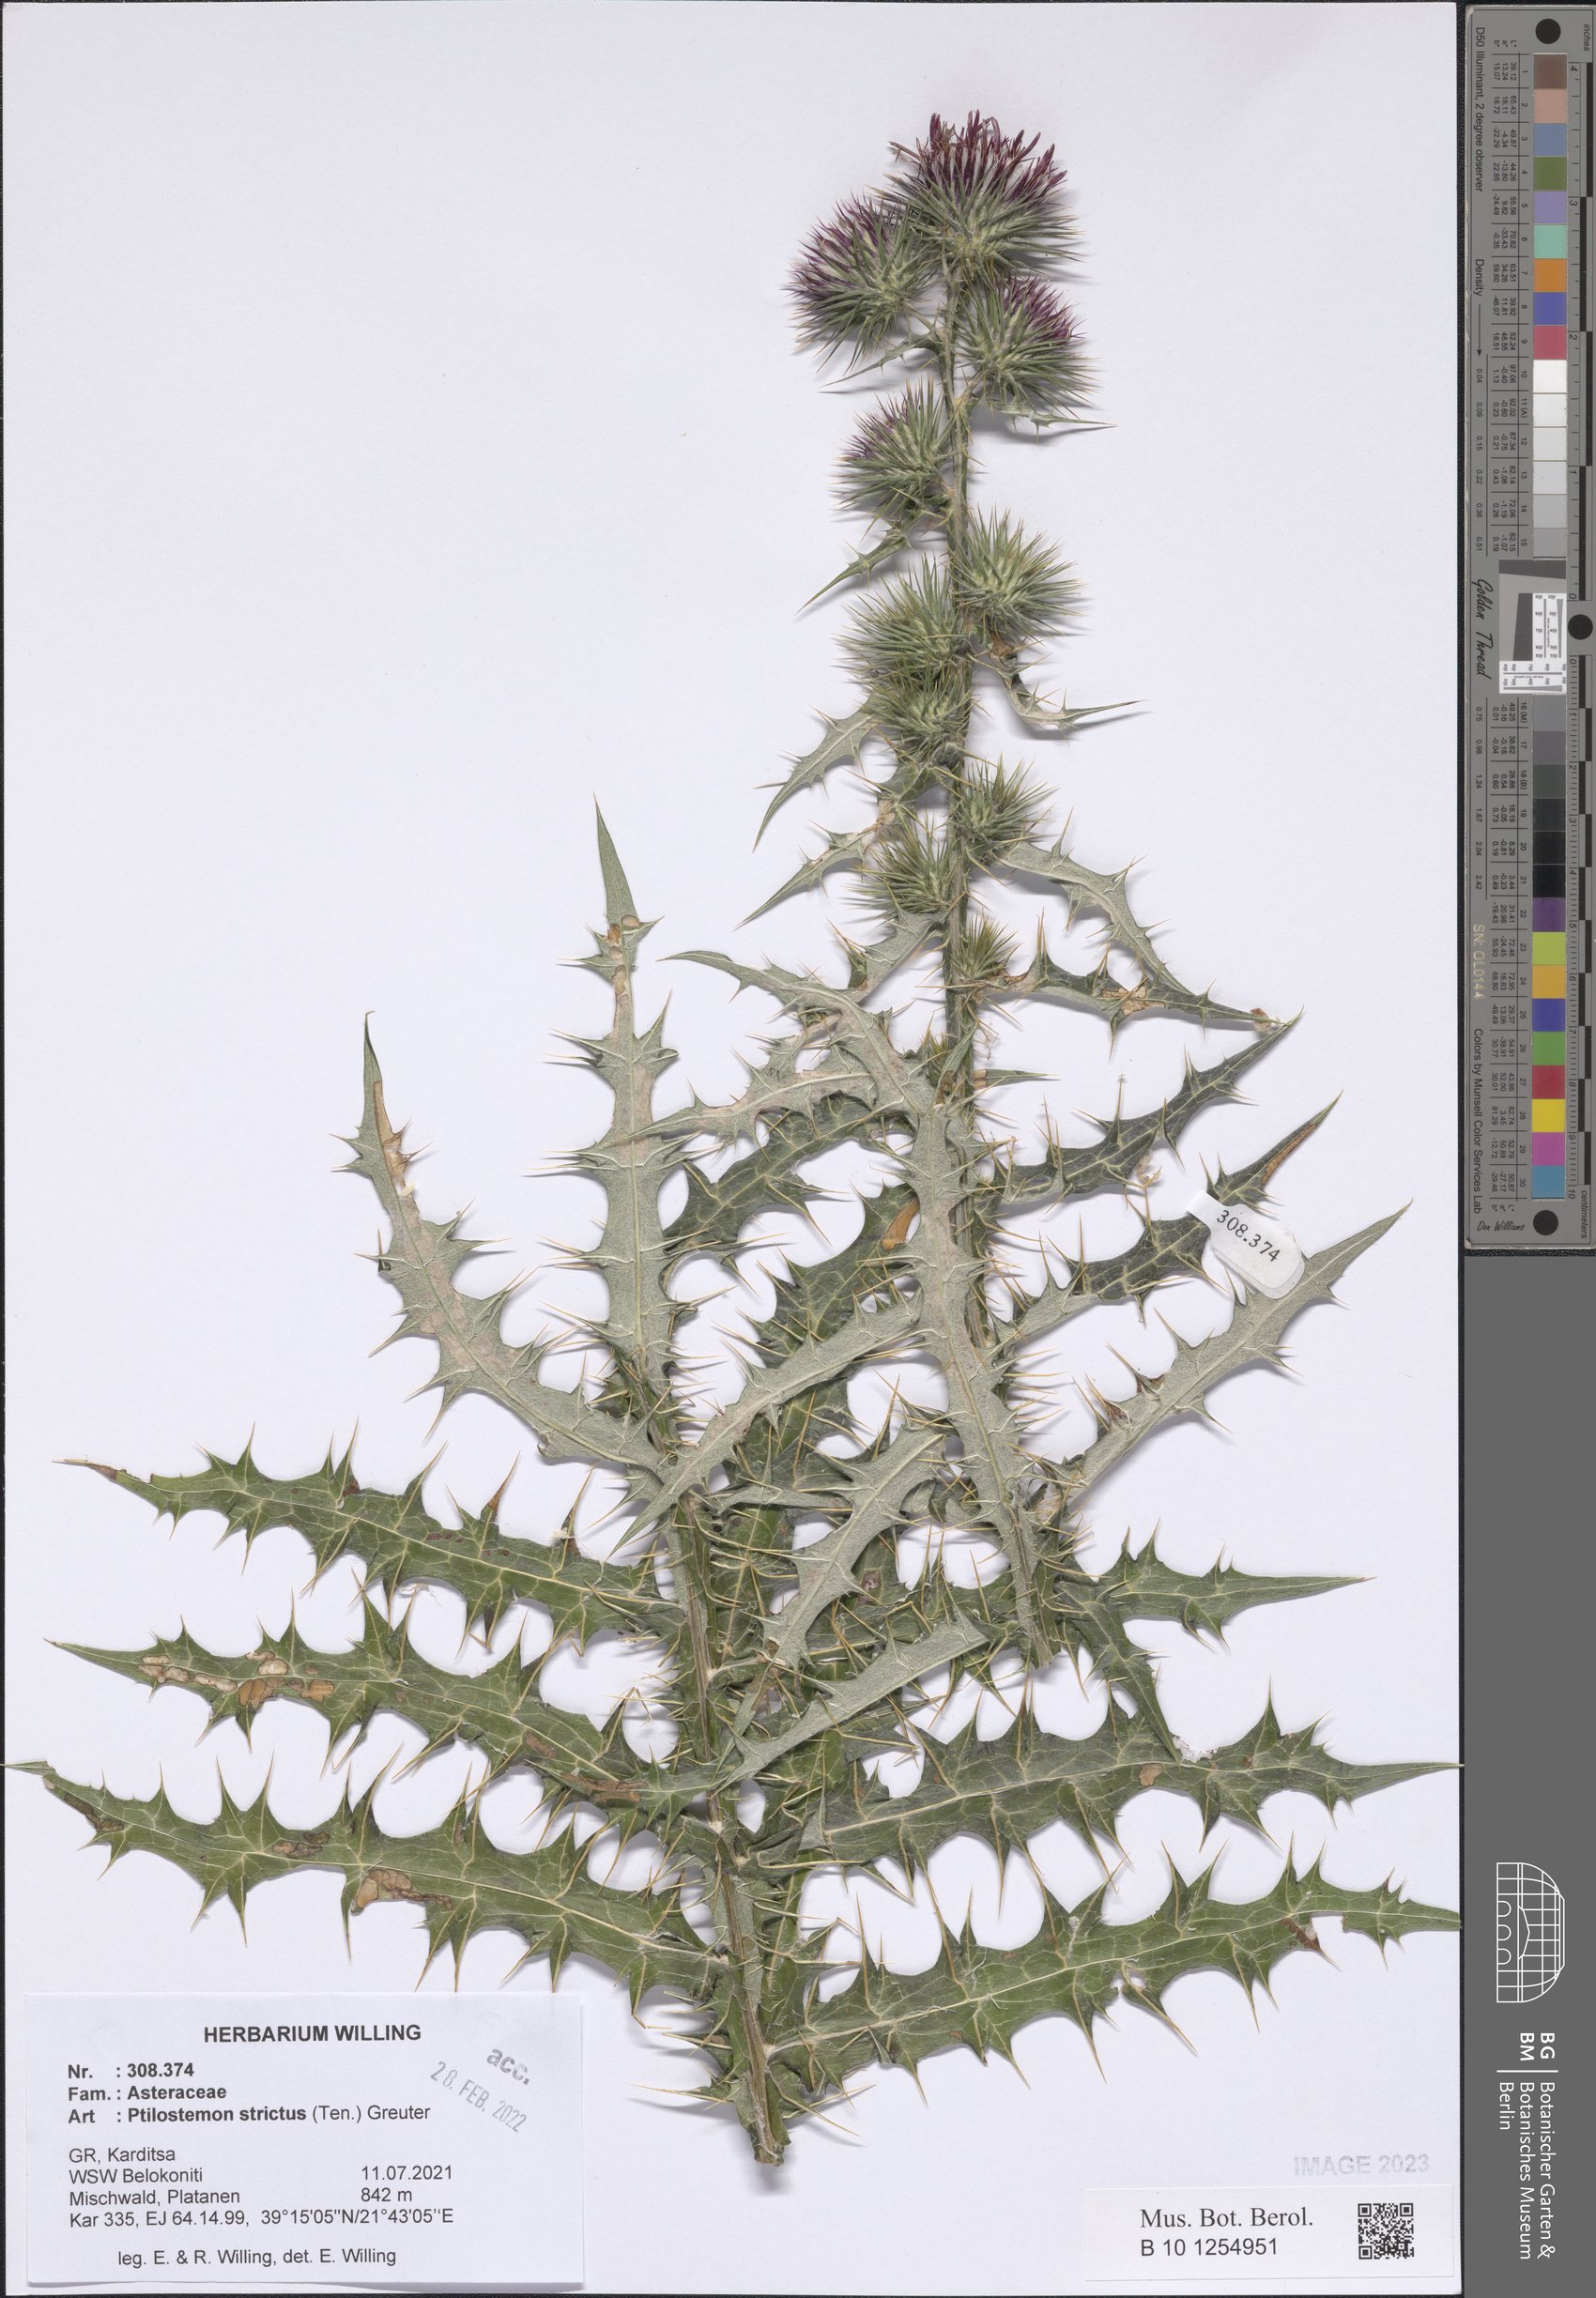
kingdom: Plantae
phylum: Tracheophyta
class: Magnoliopsida
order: Asterales
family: Asteraceae
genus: Ptilostemon
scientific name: Ptilostemon strictus
